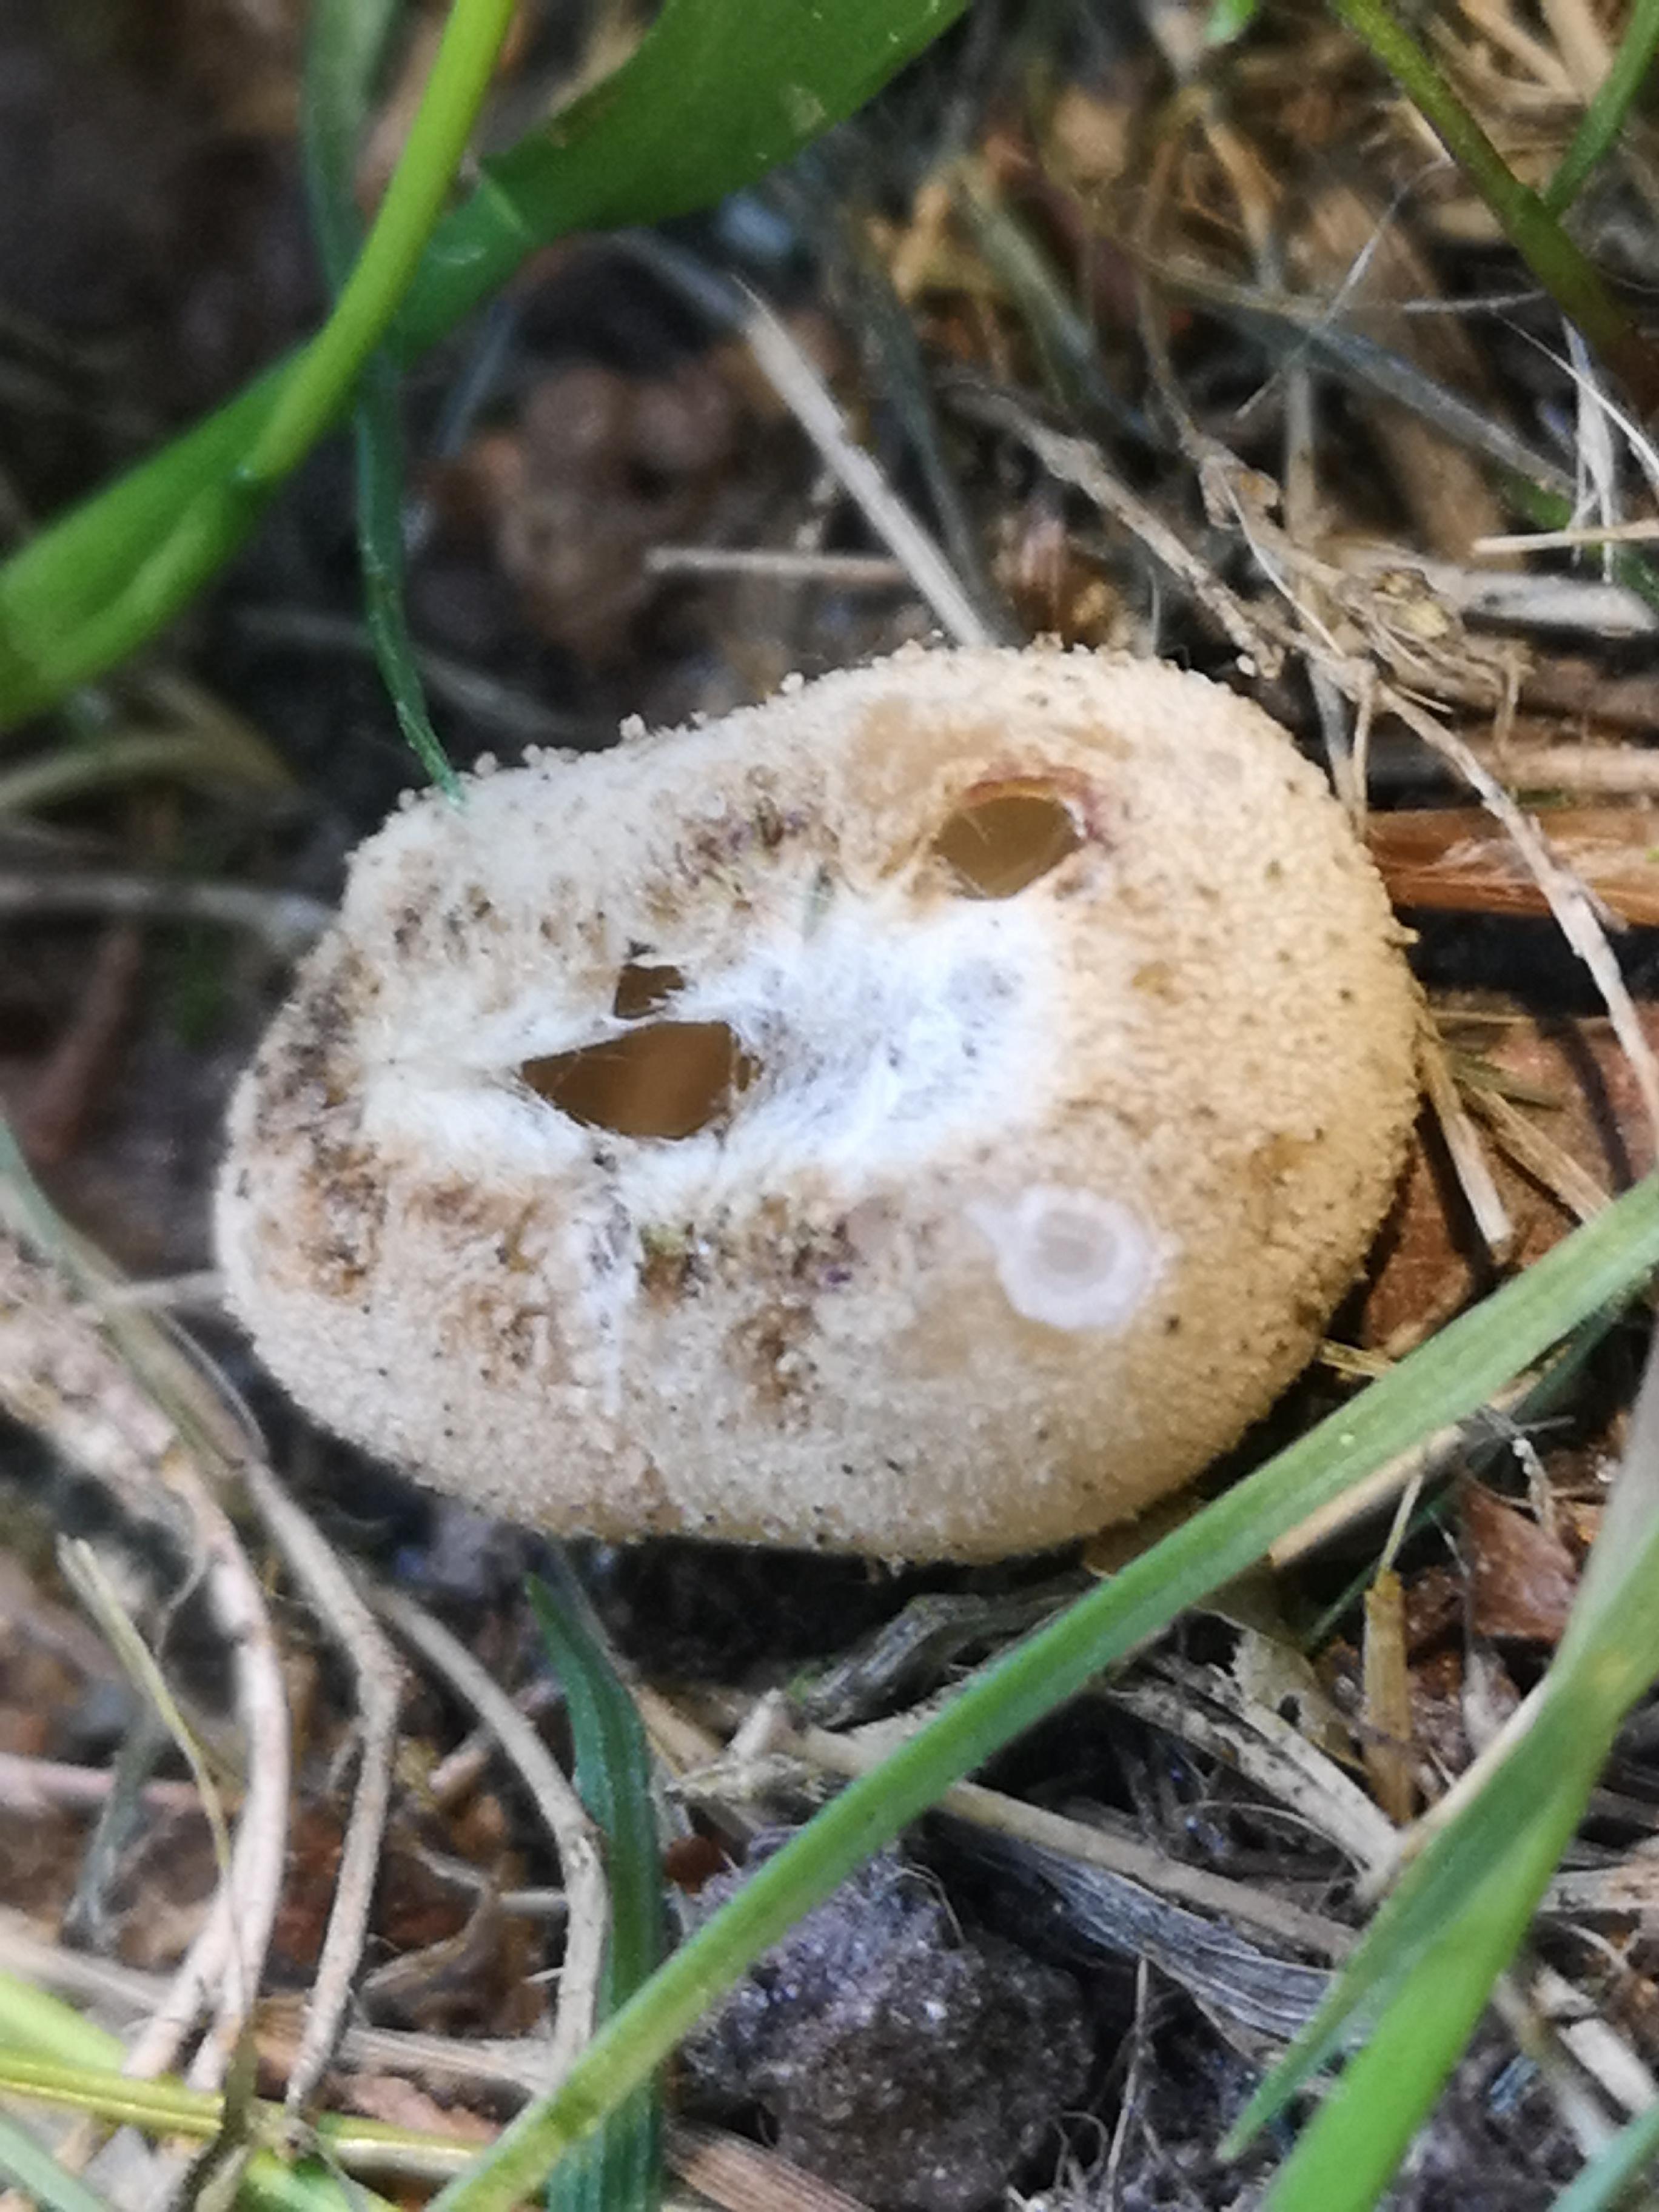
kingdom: Fungi
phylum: Ascomycota
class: Pezizomycetes
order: Pezizales
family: Pyronemataceae
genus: Tarzetta
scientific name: Tarzetta cupularis
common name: gulbrun pokalbæger
